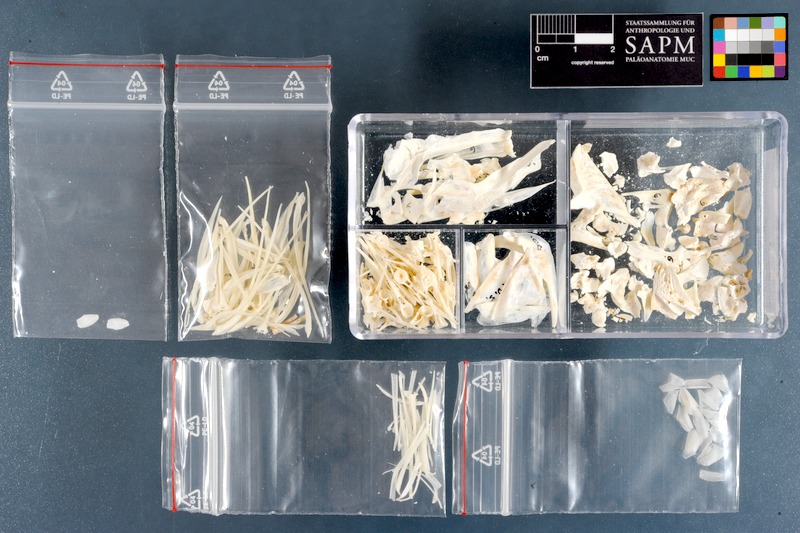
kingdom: Animalia
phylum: Chordata
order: Perciformes
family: Sparidae
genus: Diplodus
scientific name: Diplodus sargus
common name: White seabream
